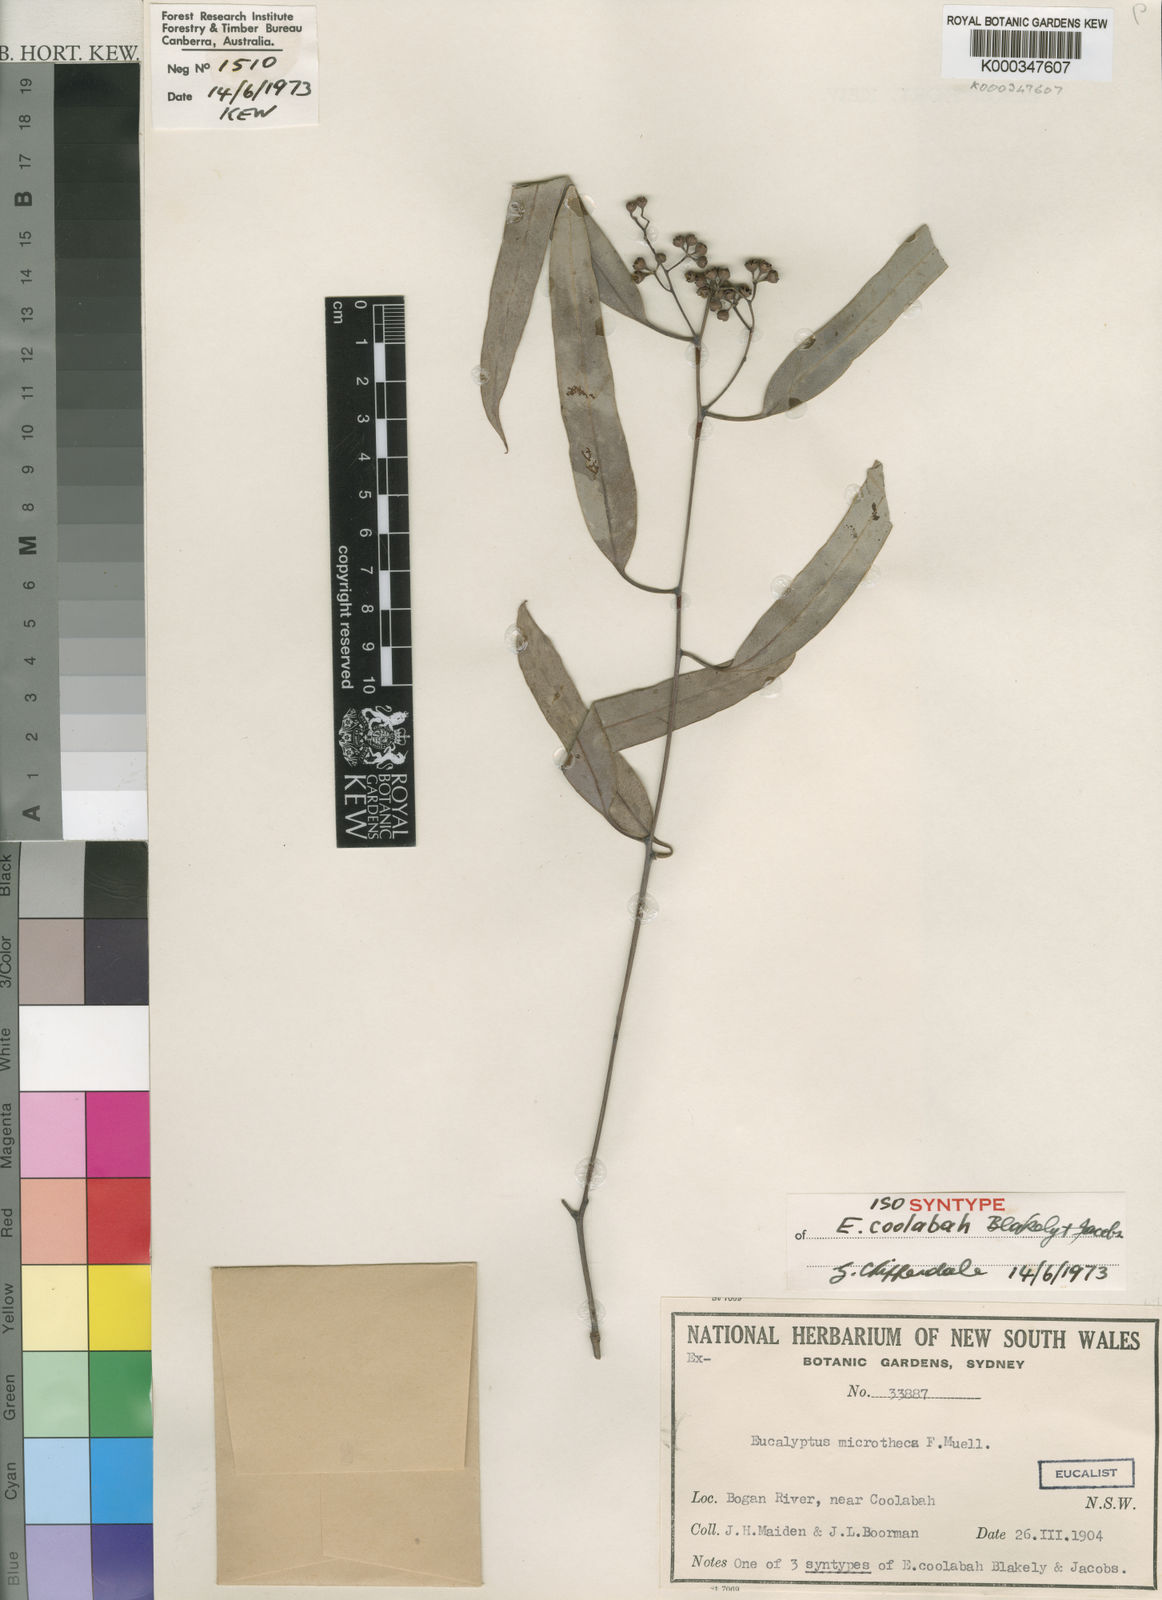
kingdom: Plantae
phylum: Tracheophyta
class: Magnoliopsida
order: Myrtales
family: Myrtaceae
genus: Eucalyptus
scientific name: Eucalyptus microtheca
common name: Coolibah
